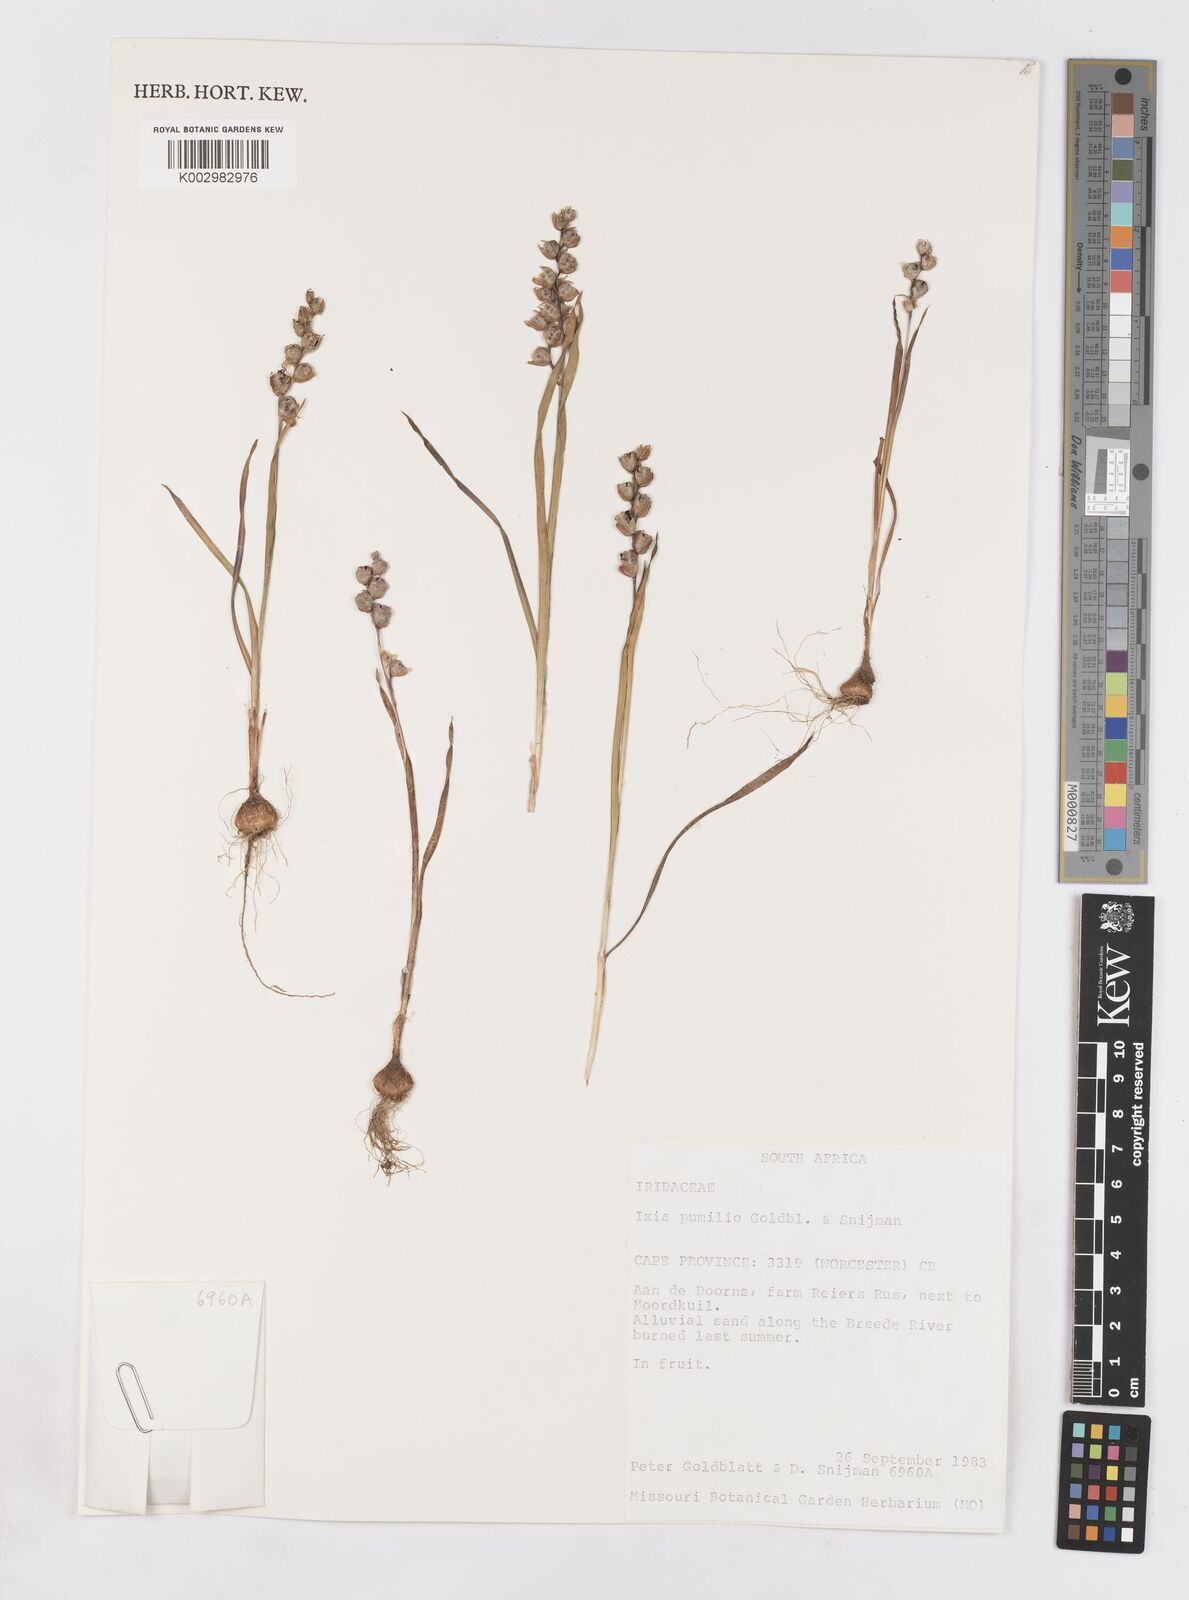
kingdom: Plantae
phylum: Tracheophyta
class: Liliopsida
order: Asparagales
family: Iridaceae
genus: Ixia
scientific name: Ixia pumilio
